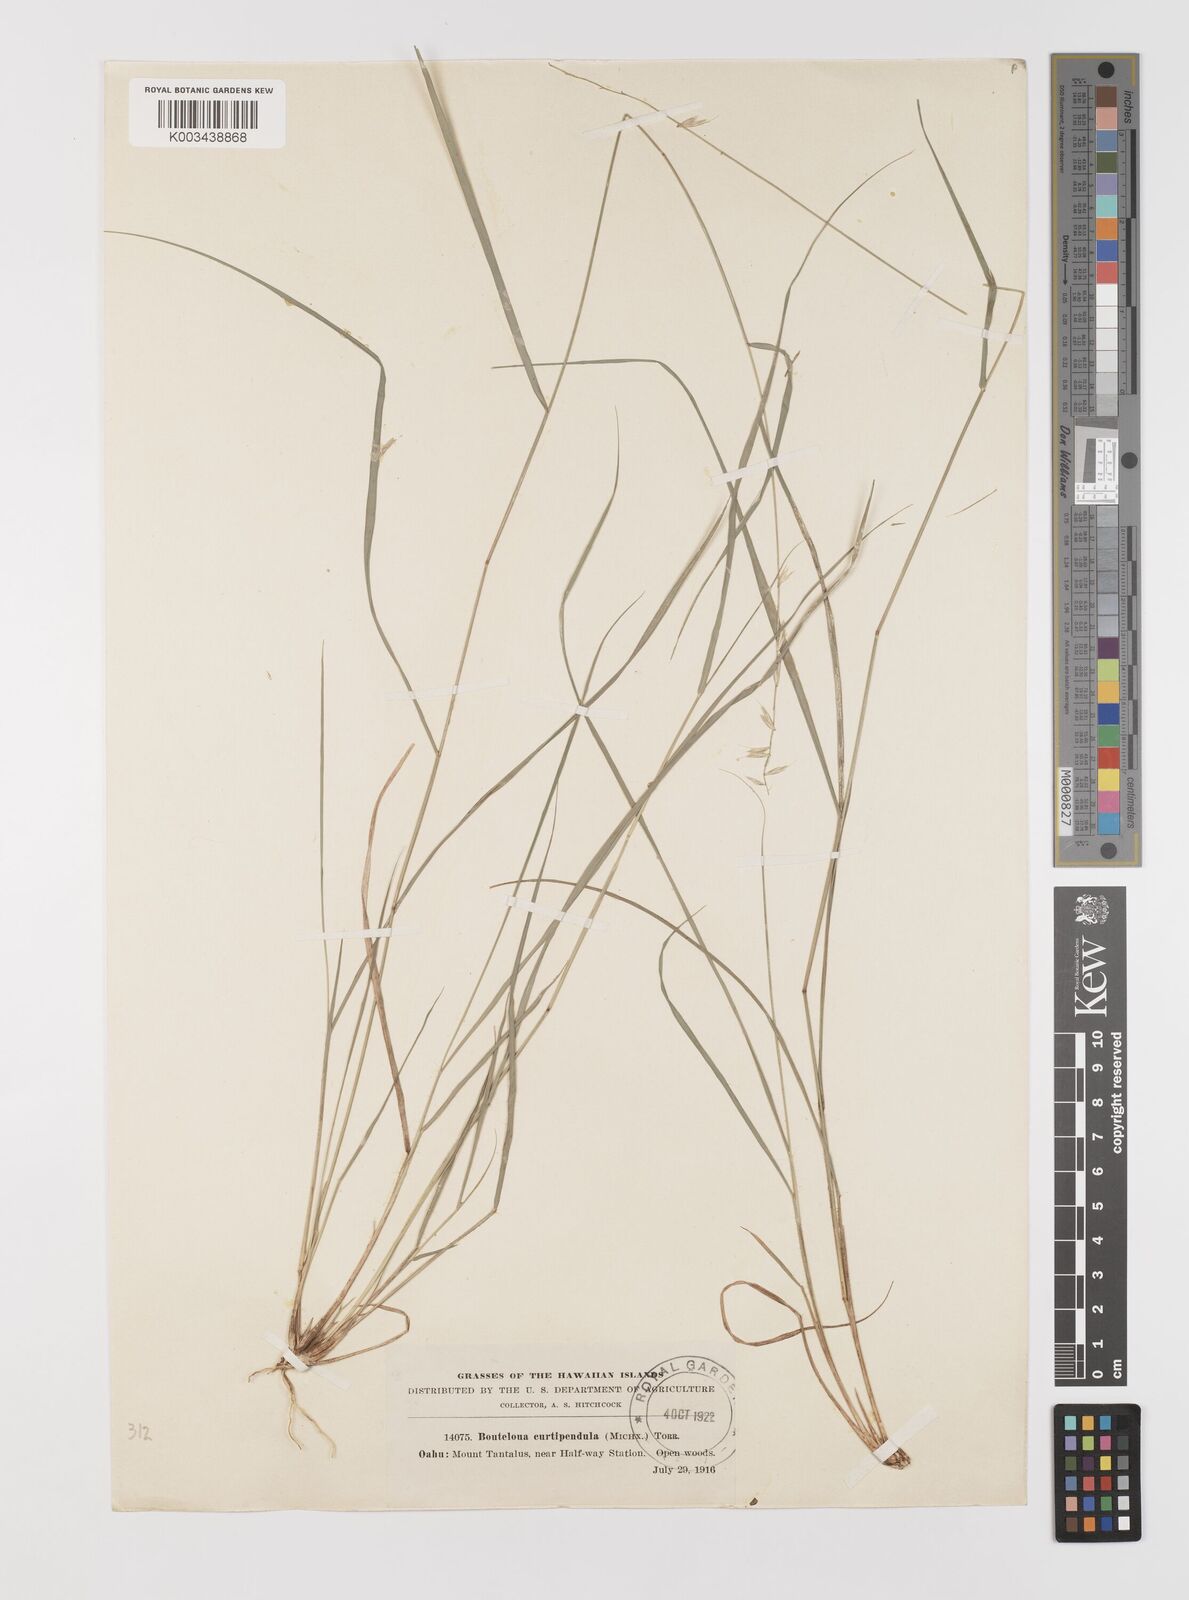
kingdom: Plantae
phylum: Tracheophyta
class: Liliopsida
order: Poales
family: Poaceae
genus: Bouteloua
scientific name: Bouteloua curtipendula
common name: Side-oats grama
